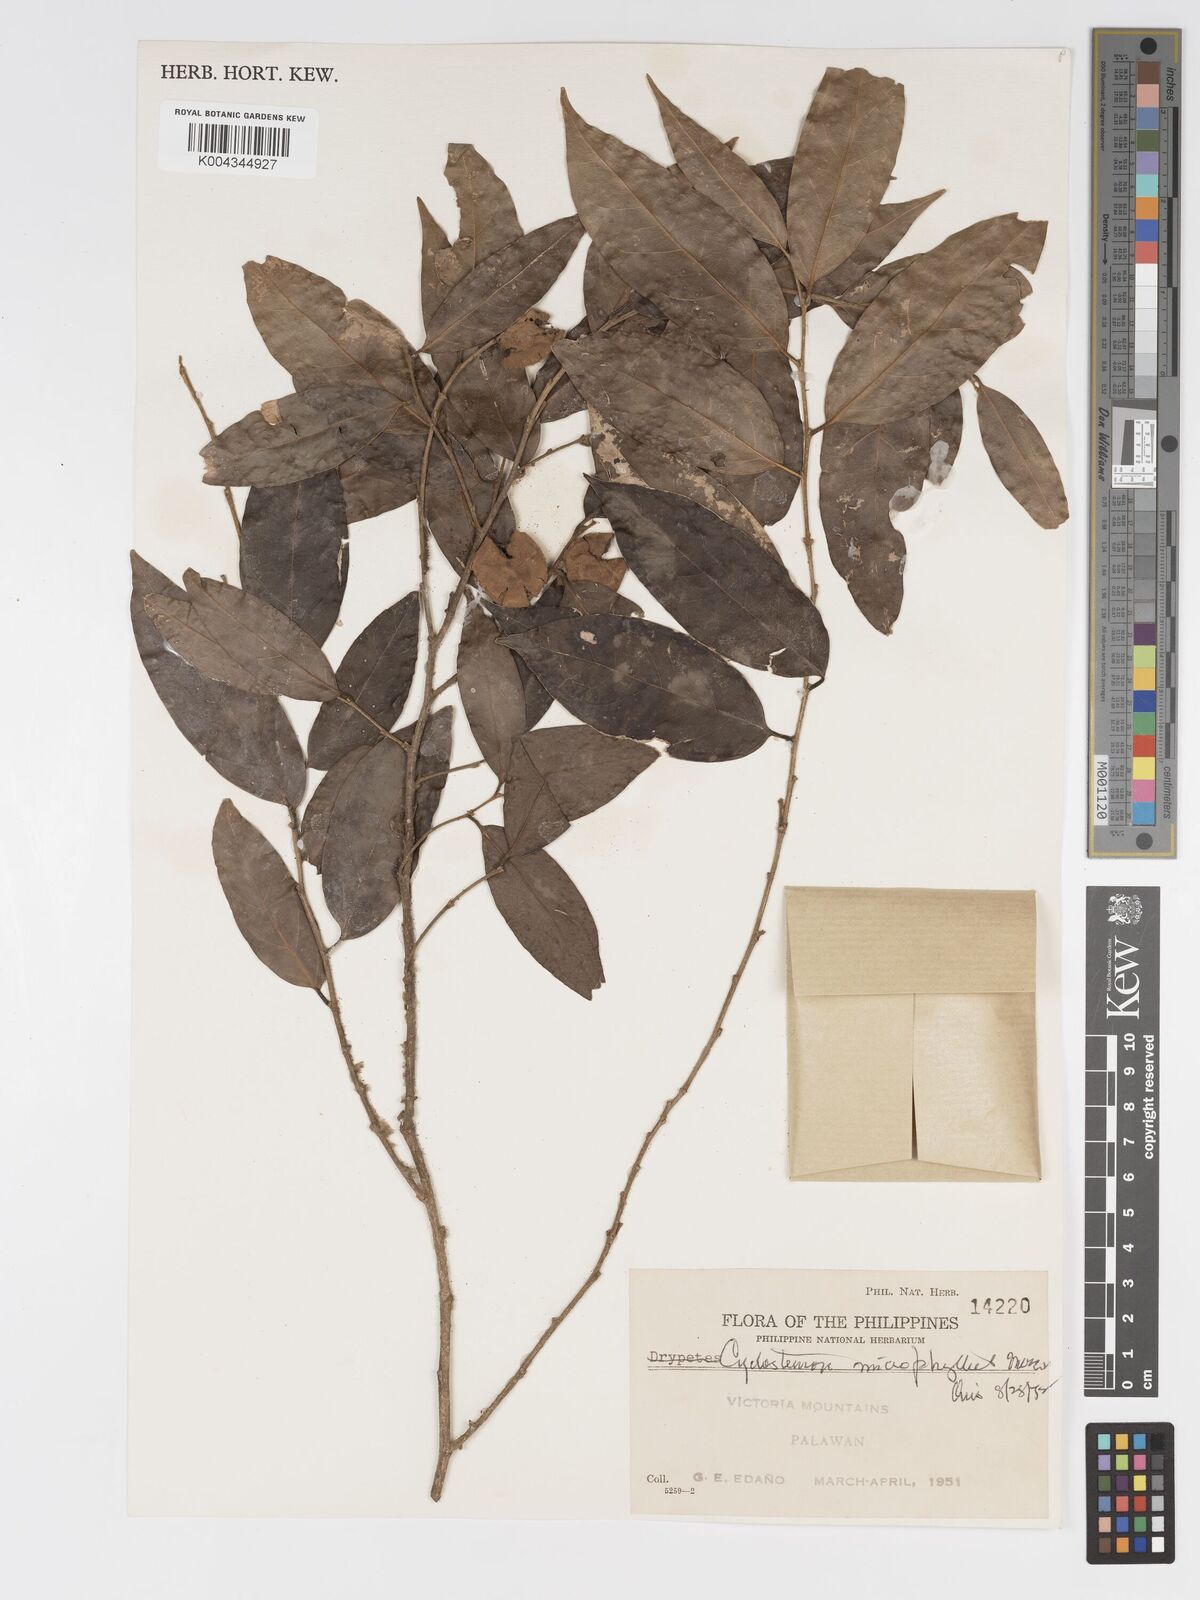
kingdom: Plantae
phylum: Tracheophyta
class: Magnoliopsida
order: Malpighiales
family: Putranjivaceae
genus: Drypetes
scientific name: Drypetes microphylla
